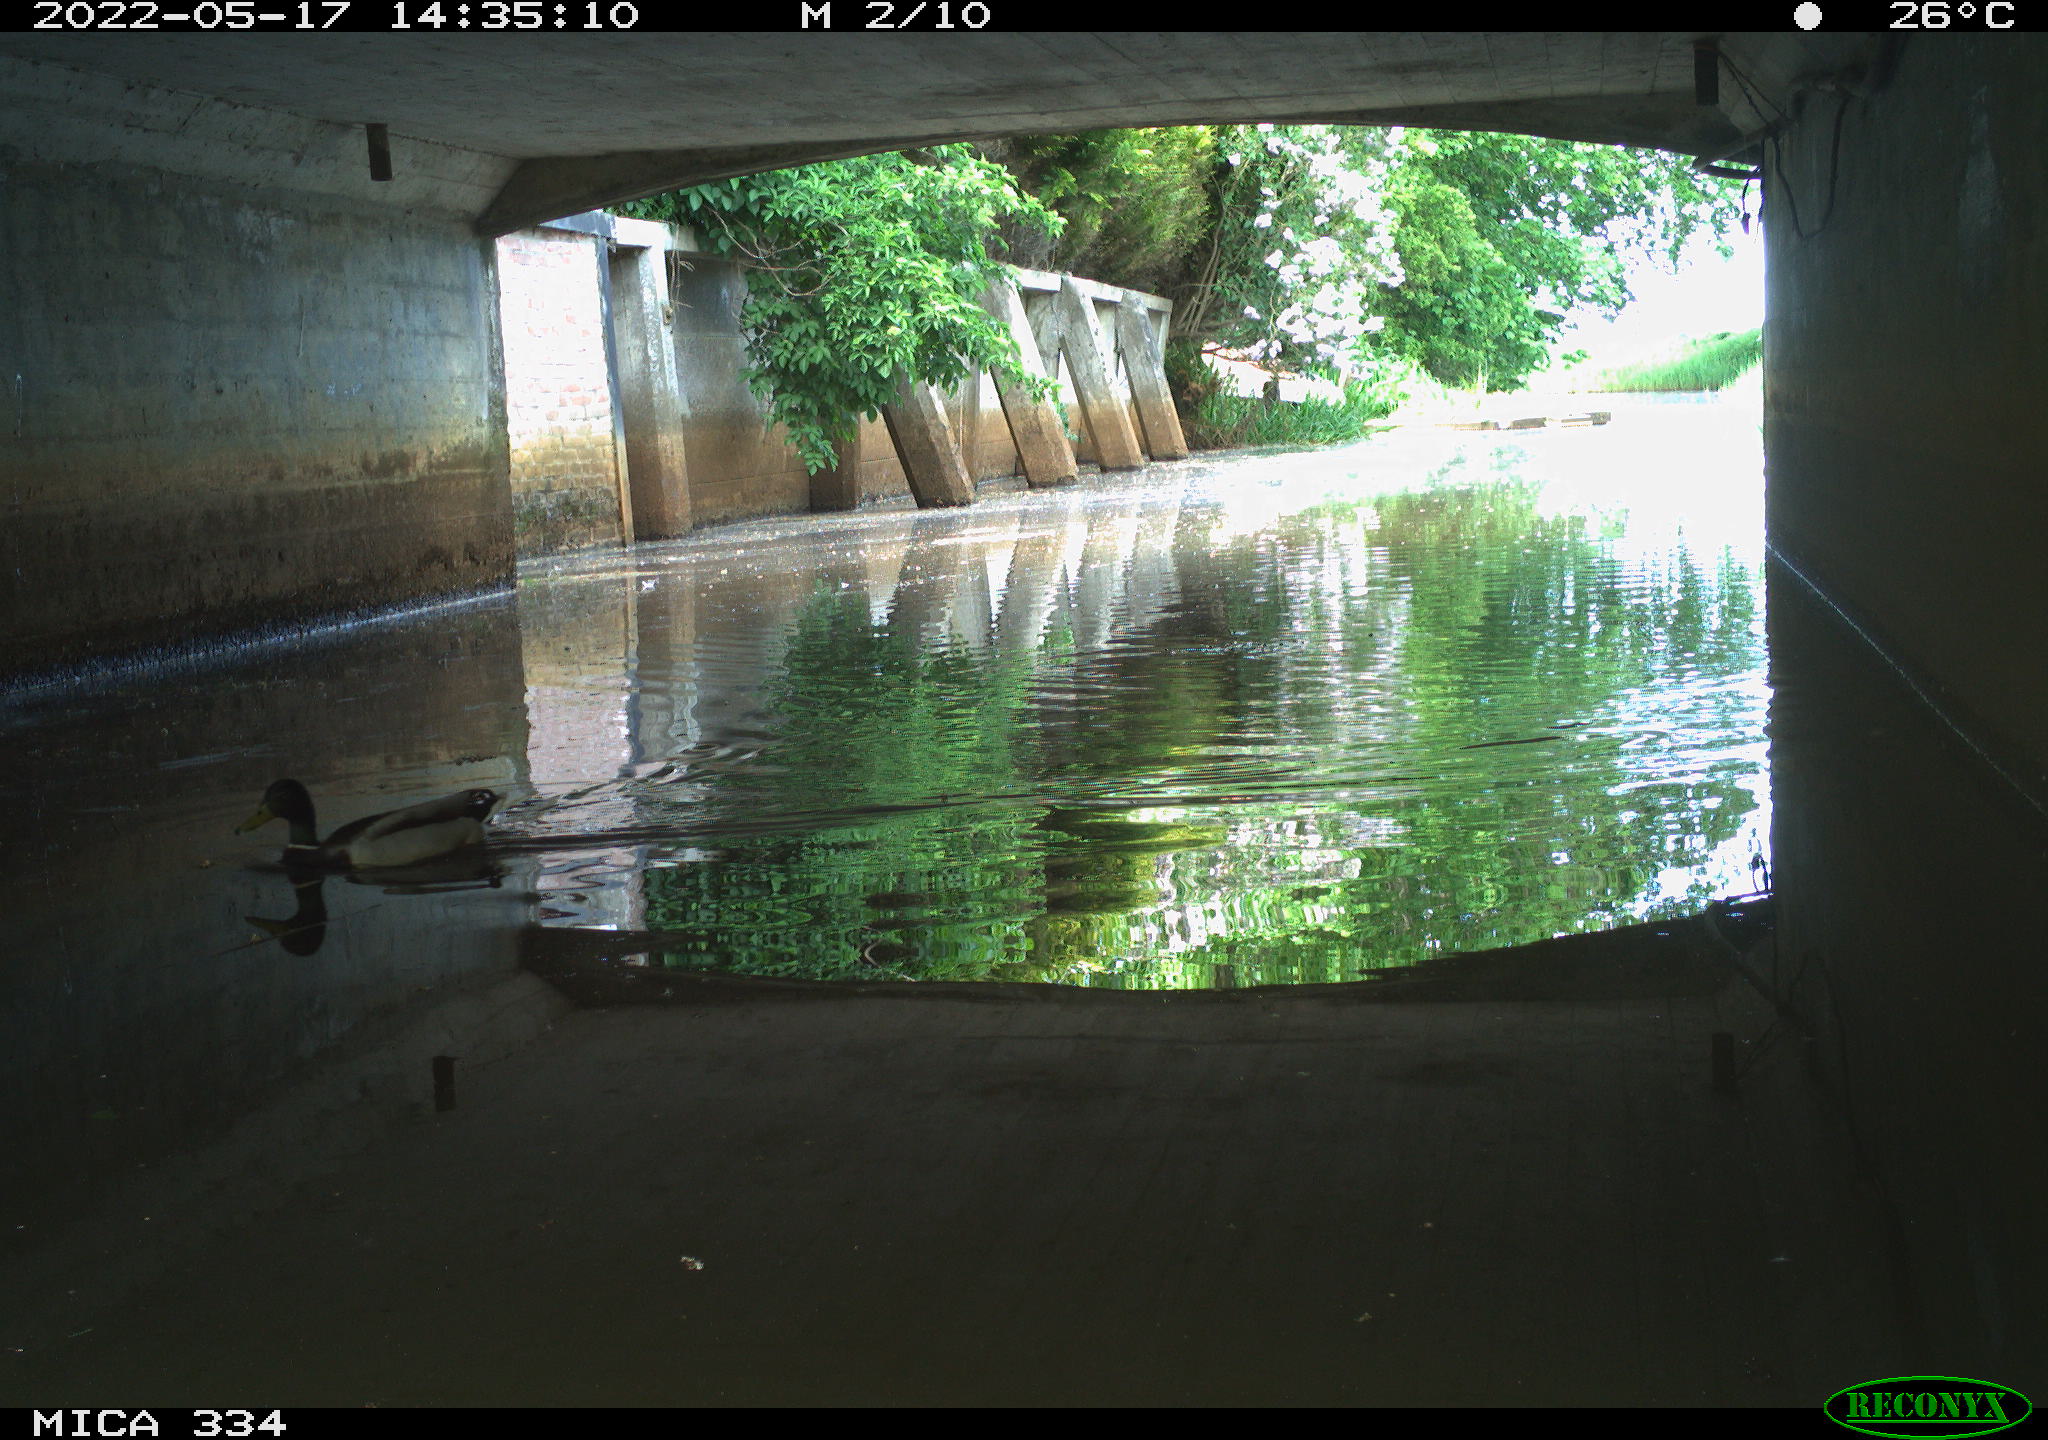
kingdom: Animalia
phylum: Chordata
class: Aves
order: Anseriformes
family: Anatidae
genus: Anas
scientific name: Anas platyrhynchos
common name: Mallard
